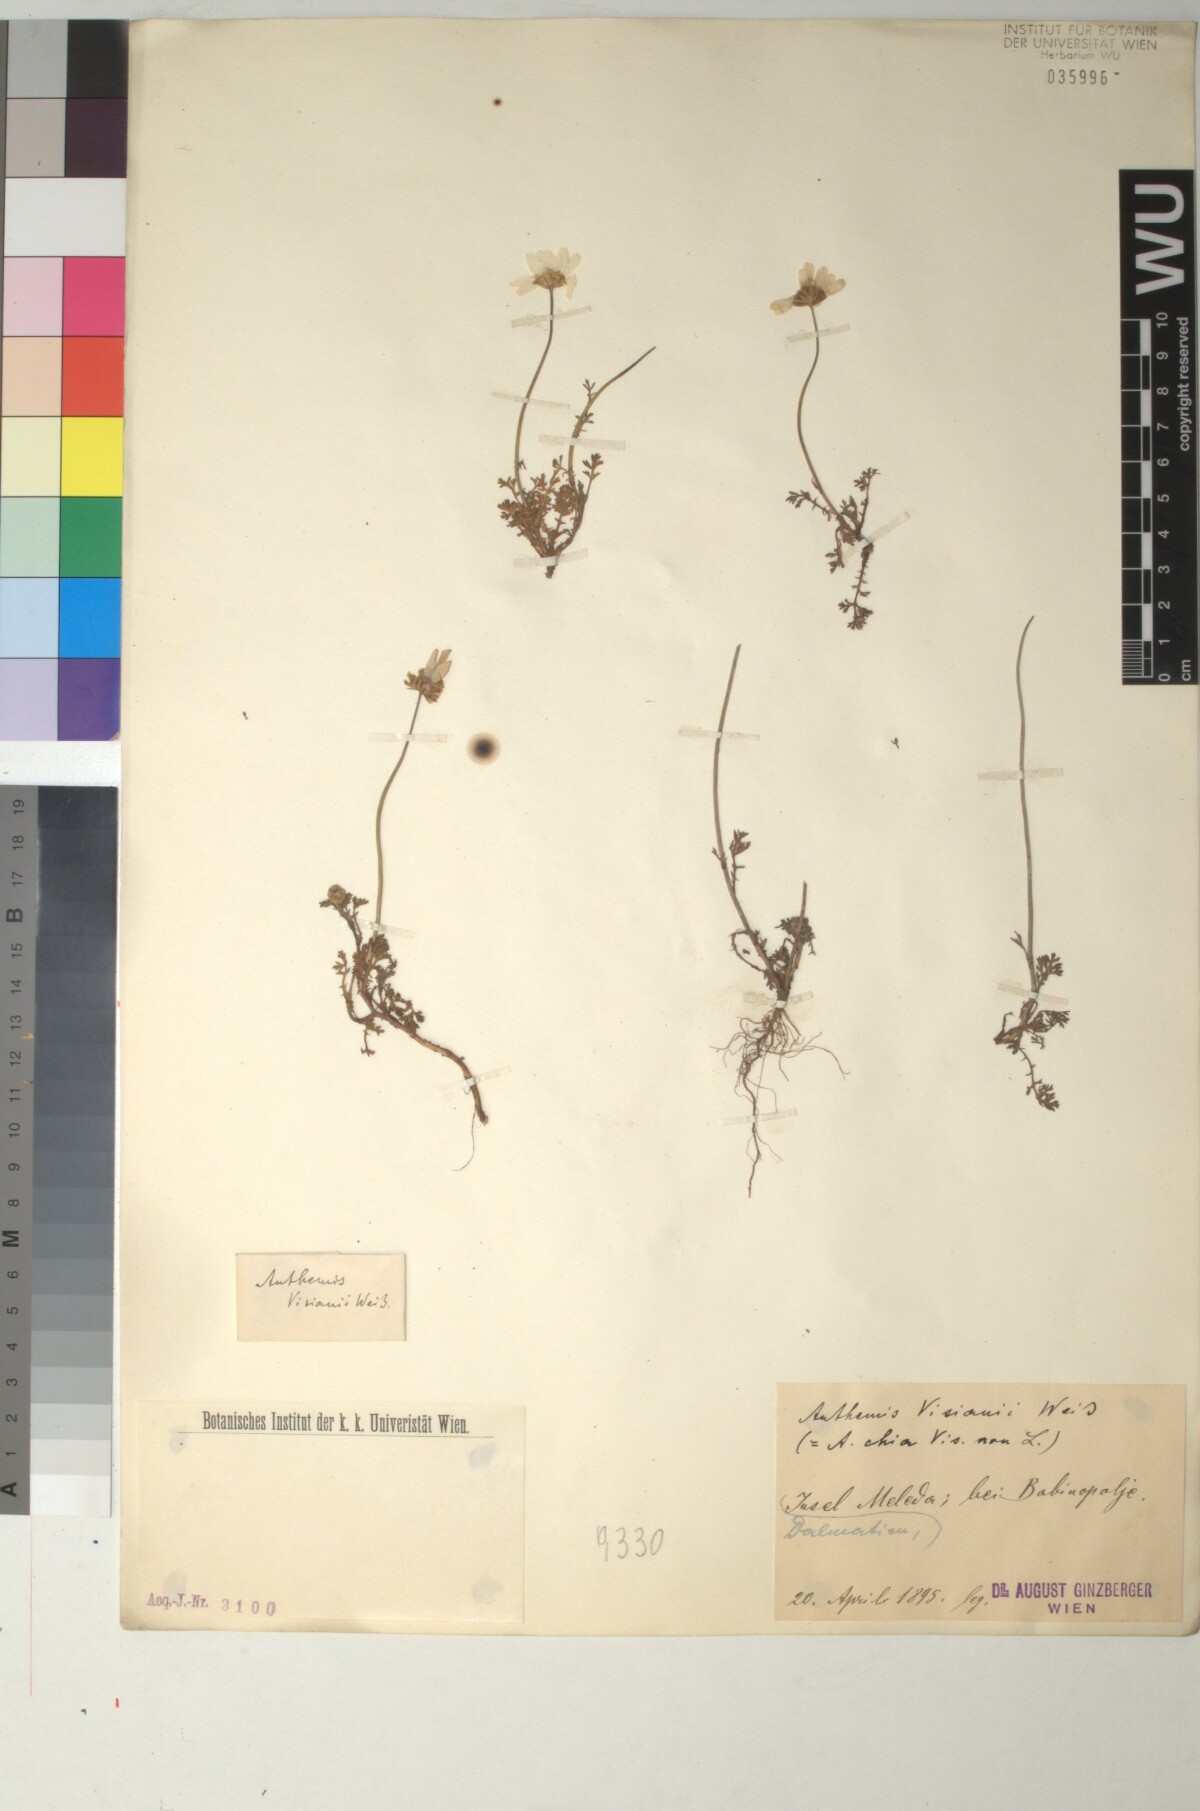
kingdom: Plantae
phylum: Tracheophyta
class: Magnoliopsida
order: Asterales
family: Asteraceae
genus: Anthemis
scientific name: Anthemis chia
